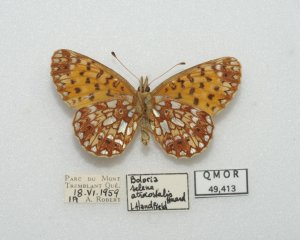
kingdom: Animalia
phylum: Arthropoda
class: Insecta
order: Lepidoptera
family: Nymphalidae
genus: Boloria
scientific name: Boloria selene
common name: Silver-bordered Fritillary
